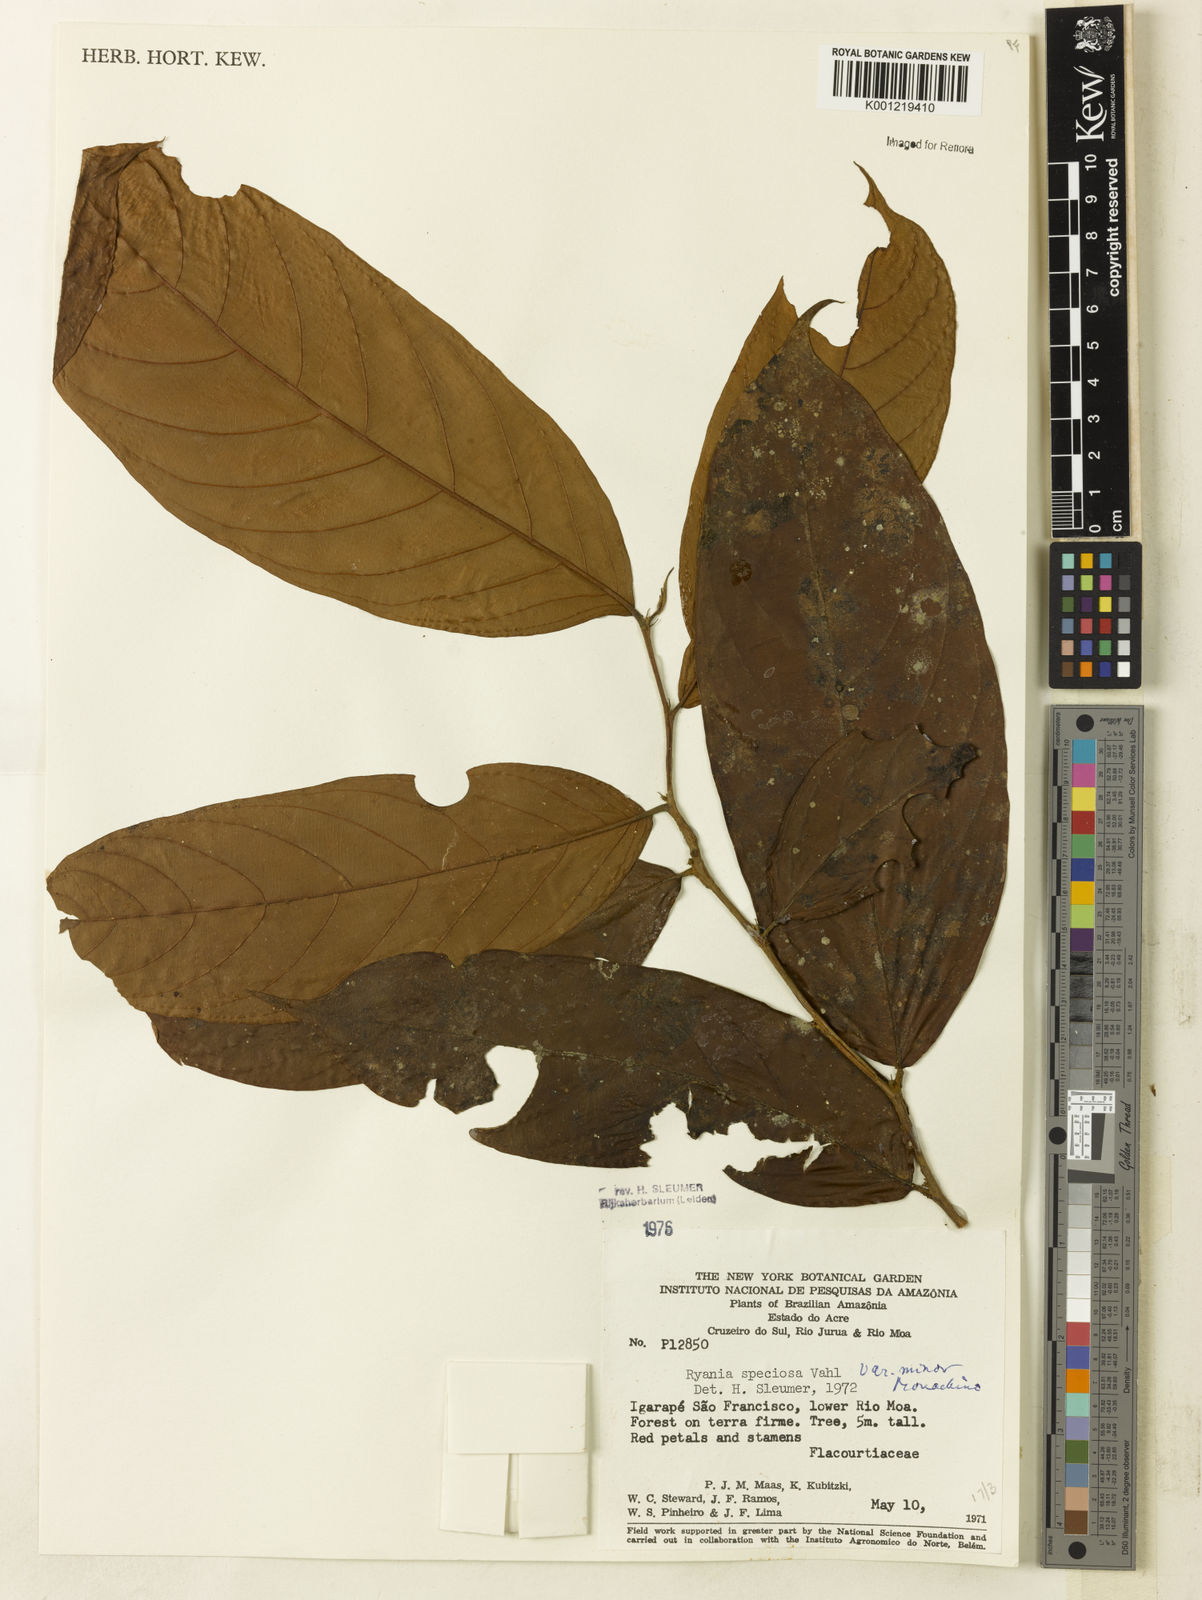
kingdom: Plantae
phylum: Tracheophyta
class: Magnoliopsida
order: Malpighiales
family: Salicaceae
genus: Ryania
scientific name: Ryania speciosa
